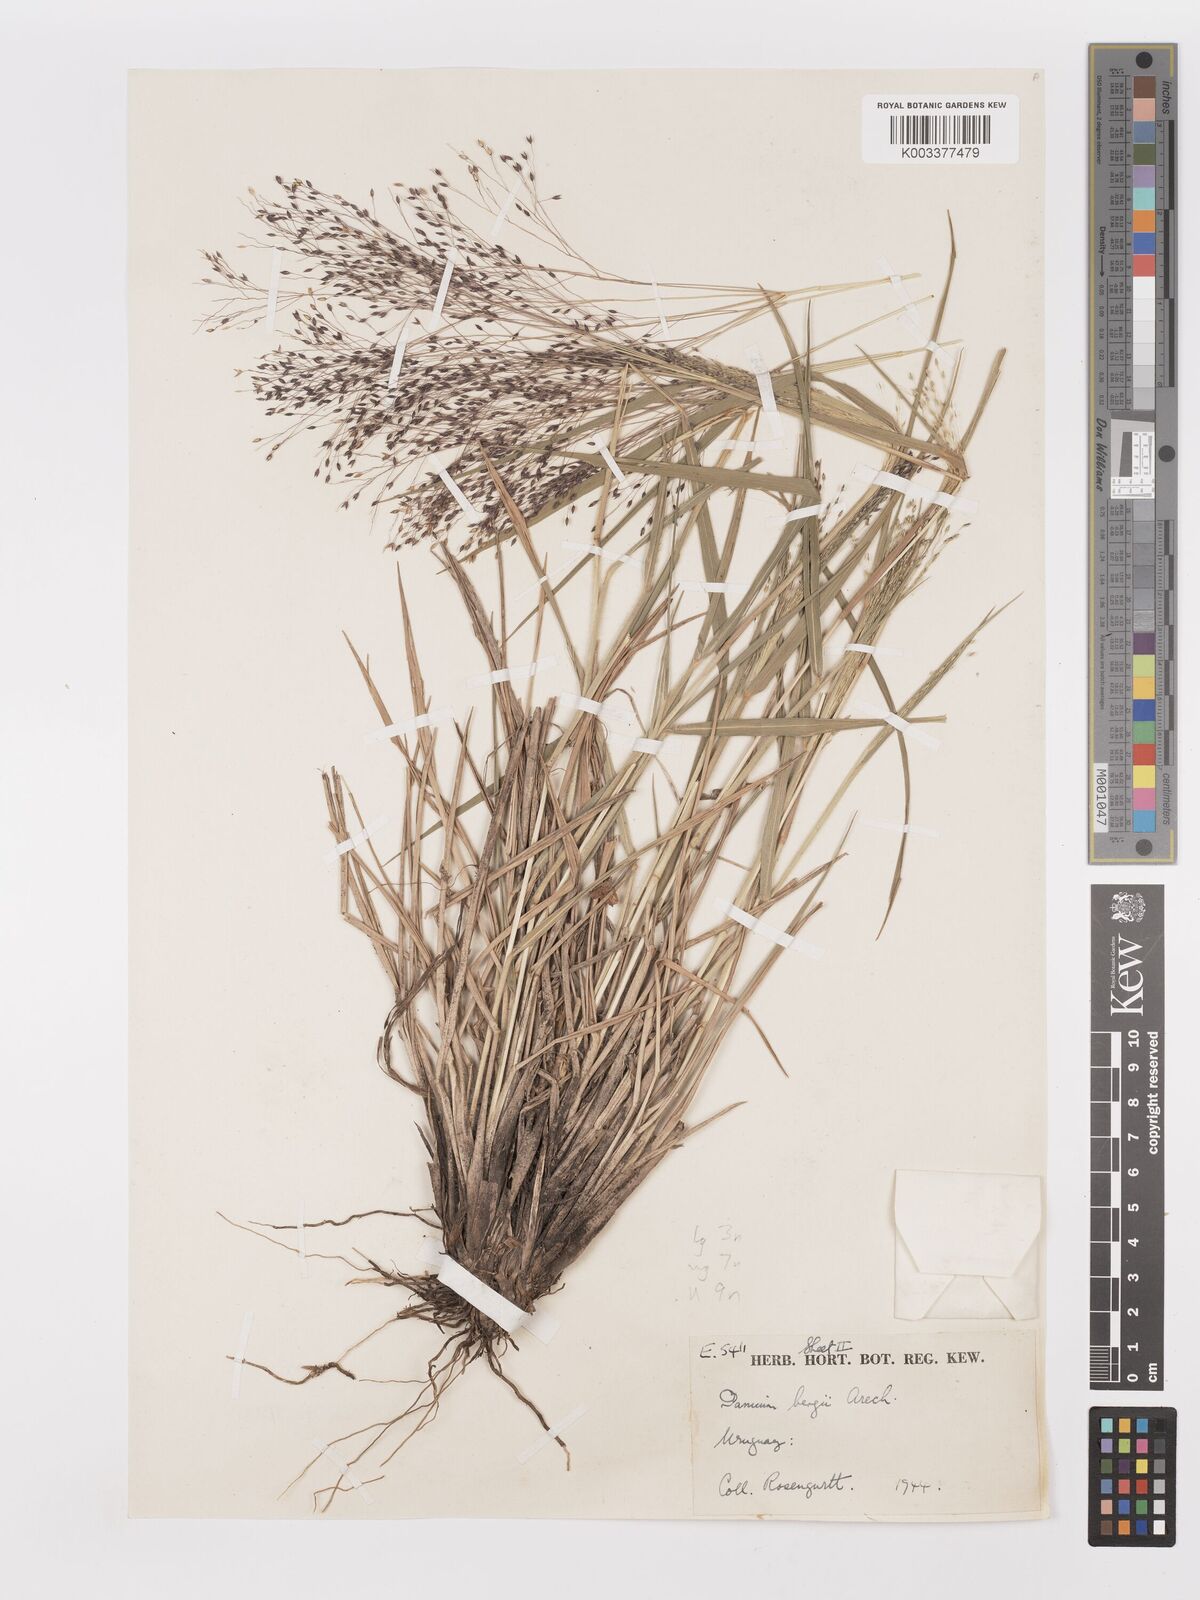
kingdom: Plantae
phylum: Tracheophyta
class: Liliopsida
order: Poales
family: Poaceae
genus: Panicum
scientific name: Panicum bergii
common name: Berg's panicgrass
